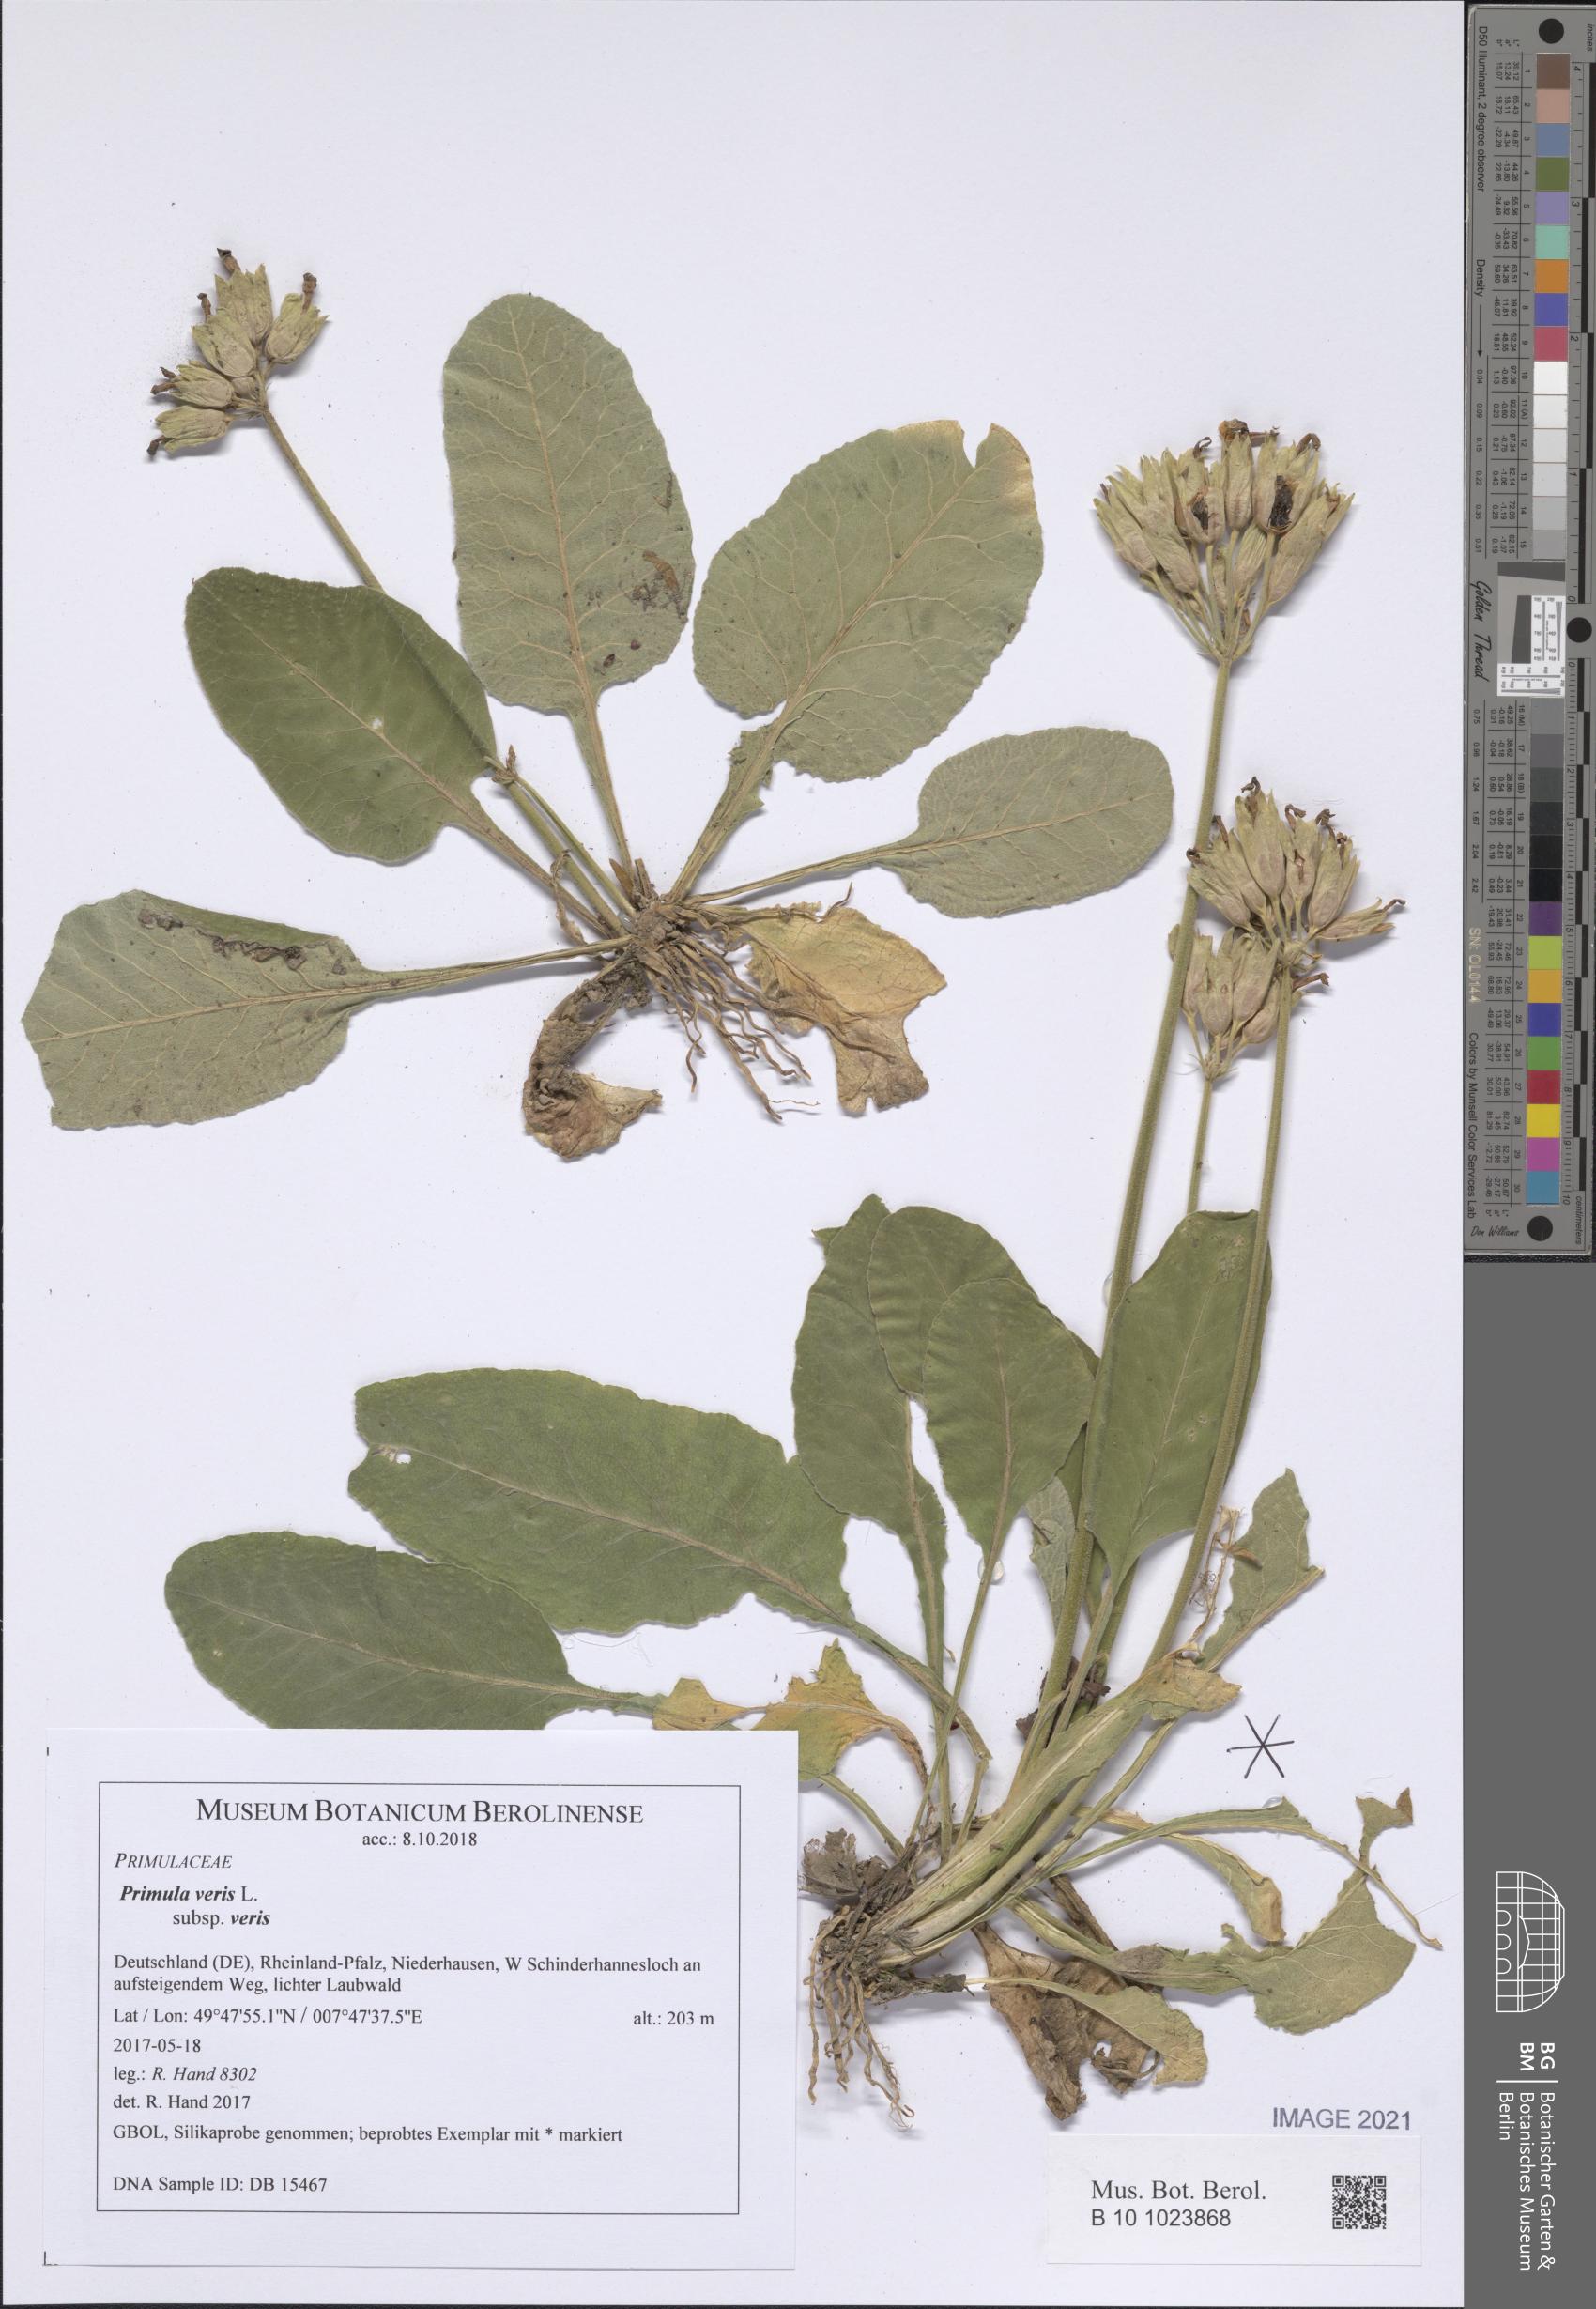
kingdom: Plantae
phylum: Tracheophyta
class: Magnoliopsida
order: Ericales
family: Primulaceae
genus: Primula
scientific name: Primula veris
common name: Cowslip
